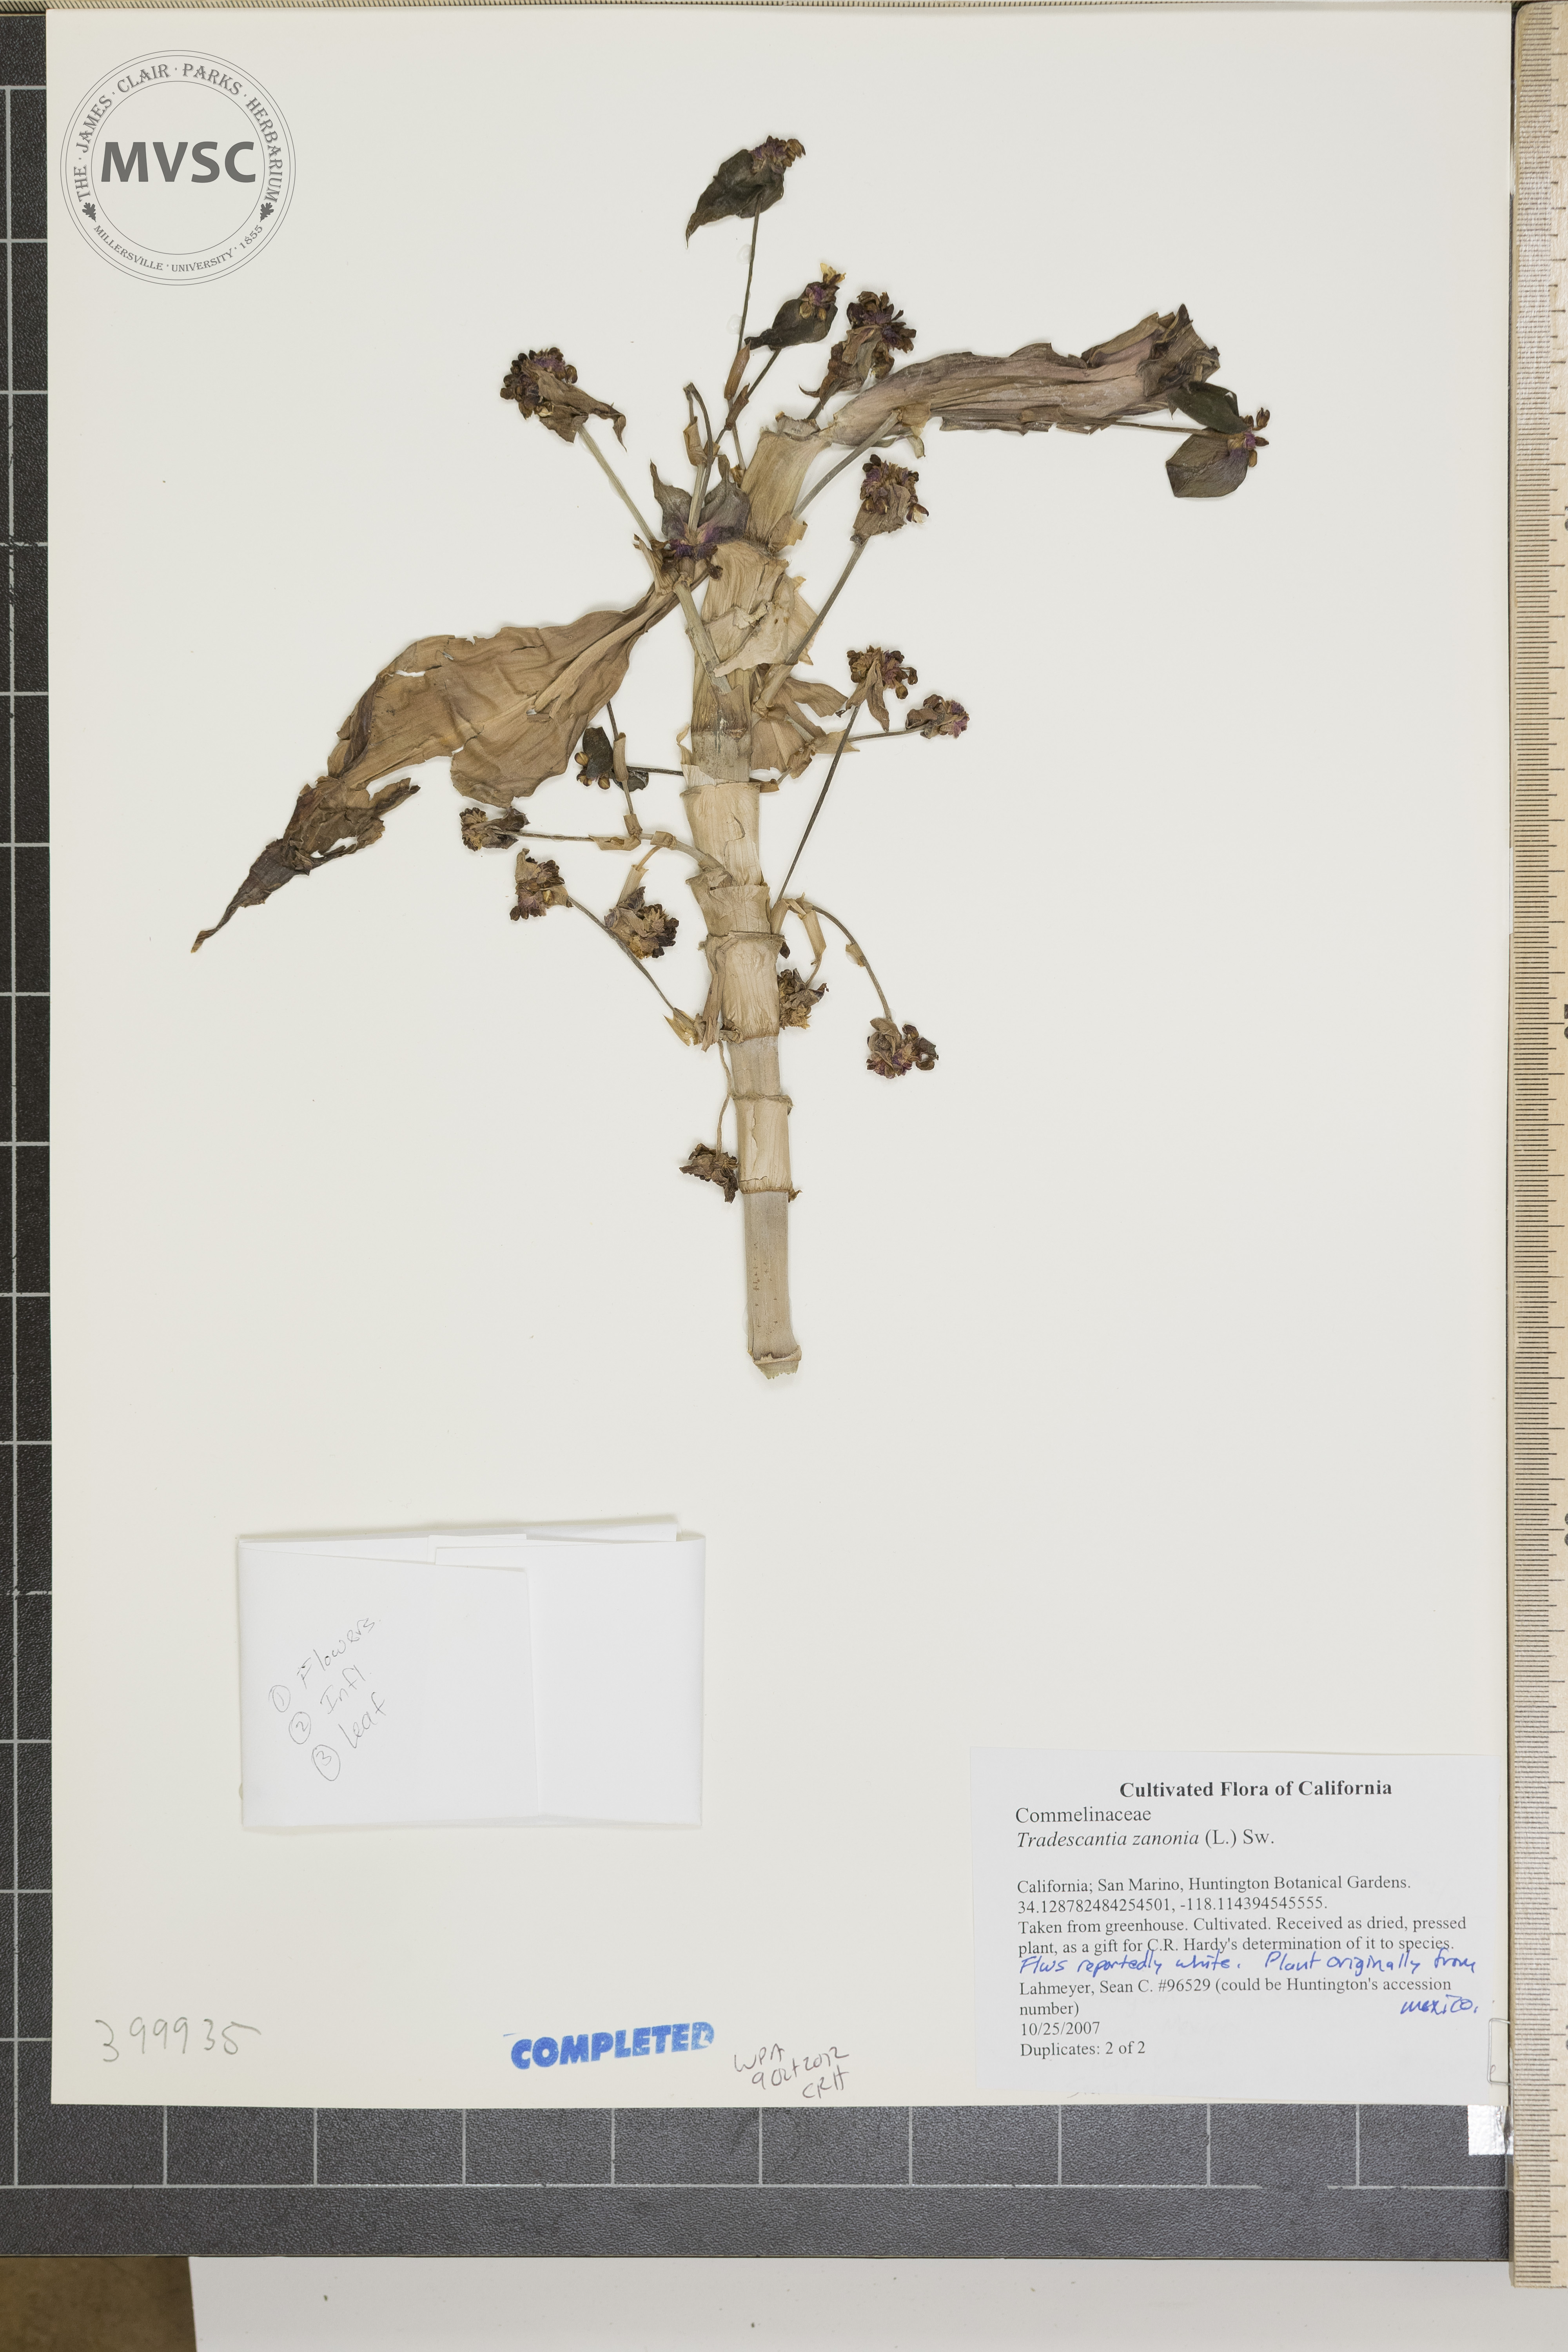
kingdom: Plantae
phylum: Tracheophyta
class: Liliopsida
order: Commelinales
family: Commelinaceae
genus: Tradescantia
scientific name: Tradescantia zanonia
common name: spiderwort
